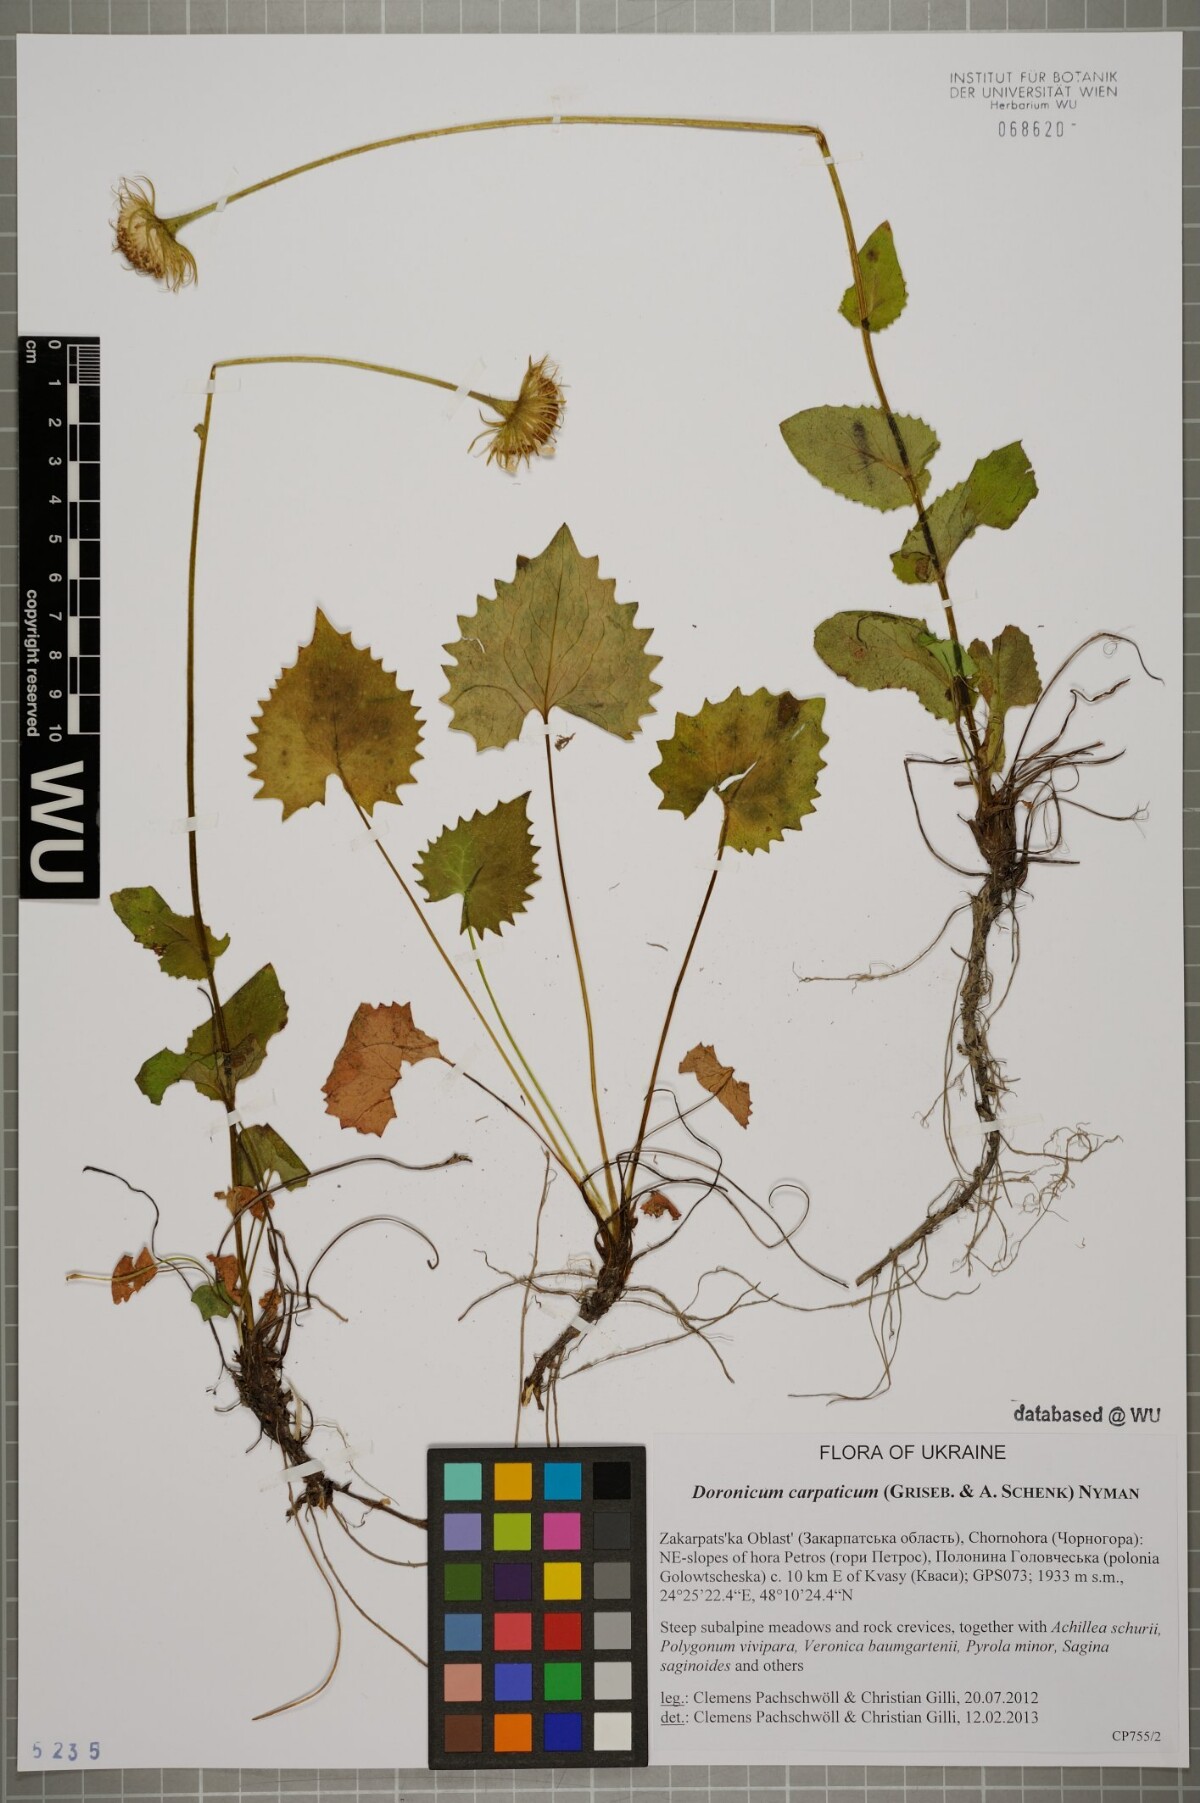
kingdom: Plantae
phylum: Tracheophyta
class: Magnoliopsida
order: Asterales
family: Asteraceae
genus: Doronicum
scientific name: Doronicum carpaticum
